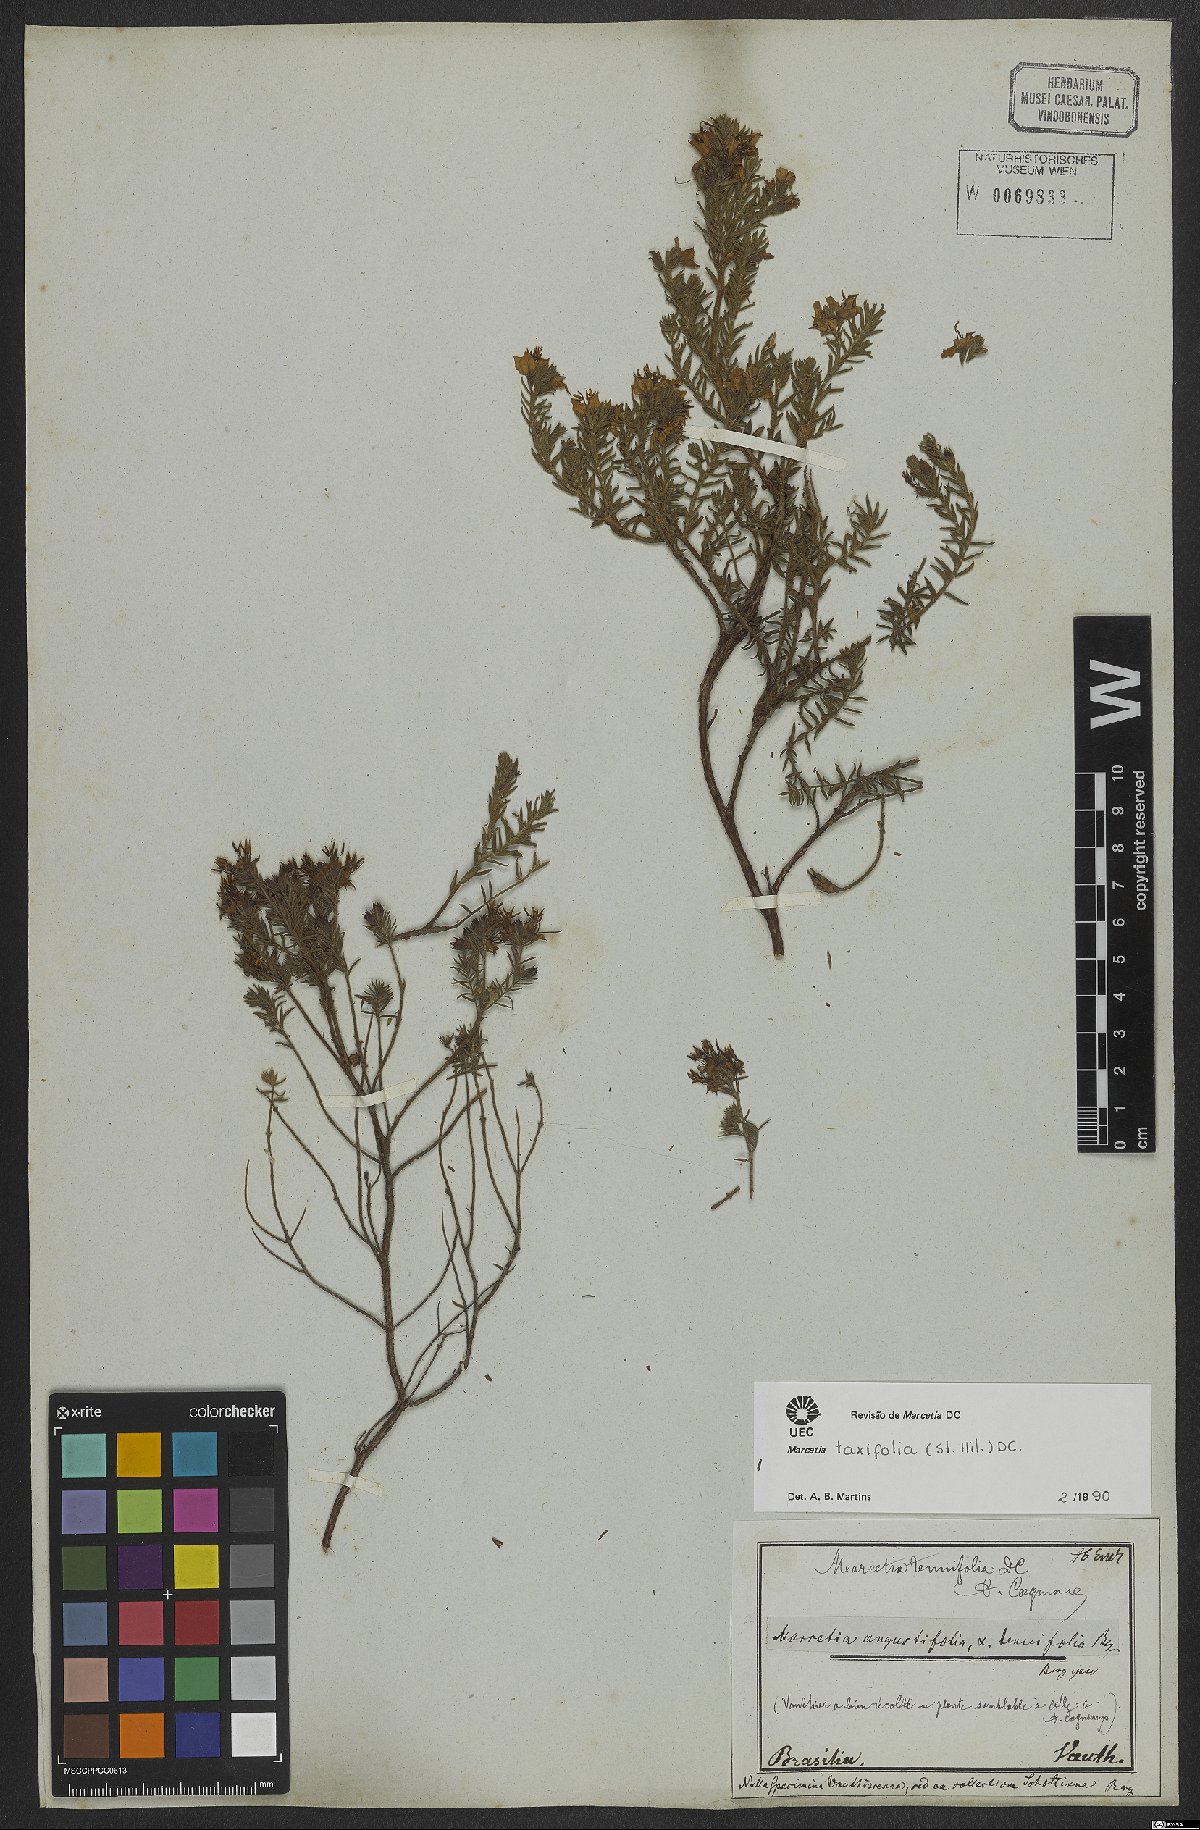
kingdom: Plantae
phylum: Tracheophyta
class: Magnoliopsida
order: Myrtales
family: Melastomataceae
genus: Marcetia
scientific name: Marcetia taxifolia
